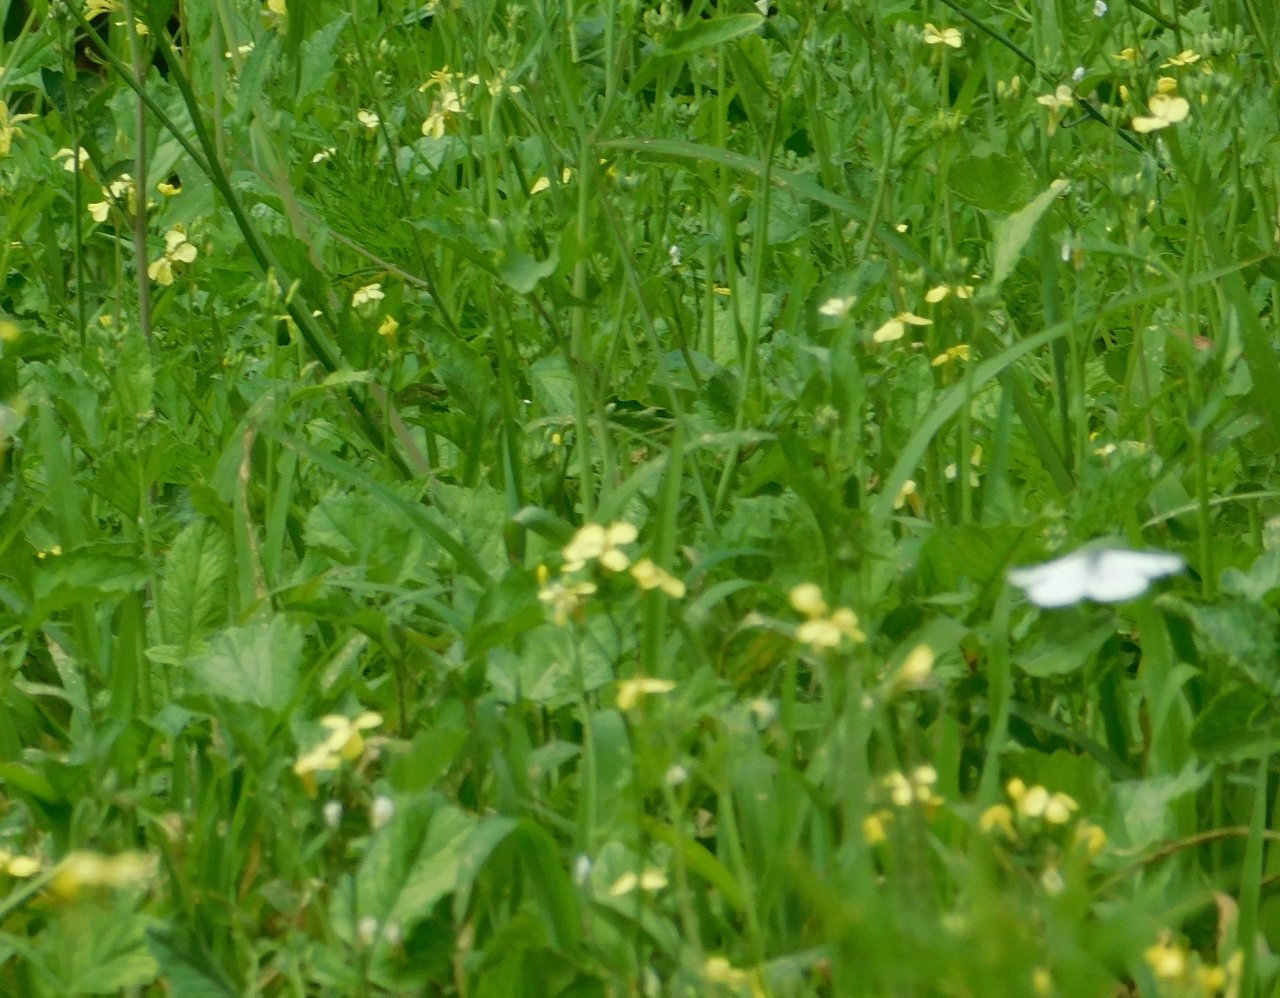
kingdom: Animalia
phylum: Arthropoda
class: Insecta
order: Lepidoptera
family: Pieridae
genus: Pieris
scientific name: Pieris rapae
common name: Cabbage White
